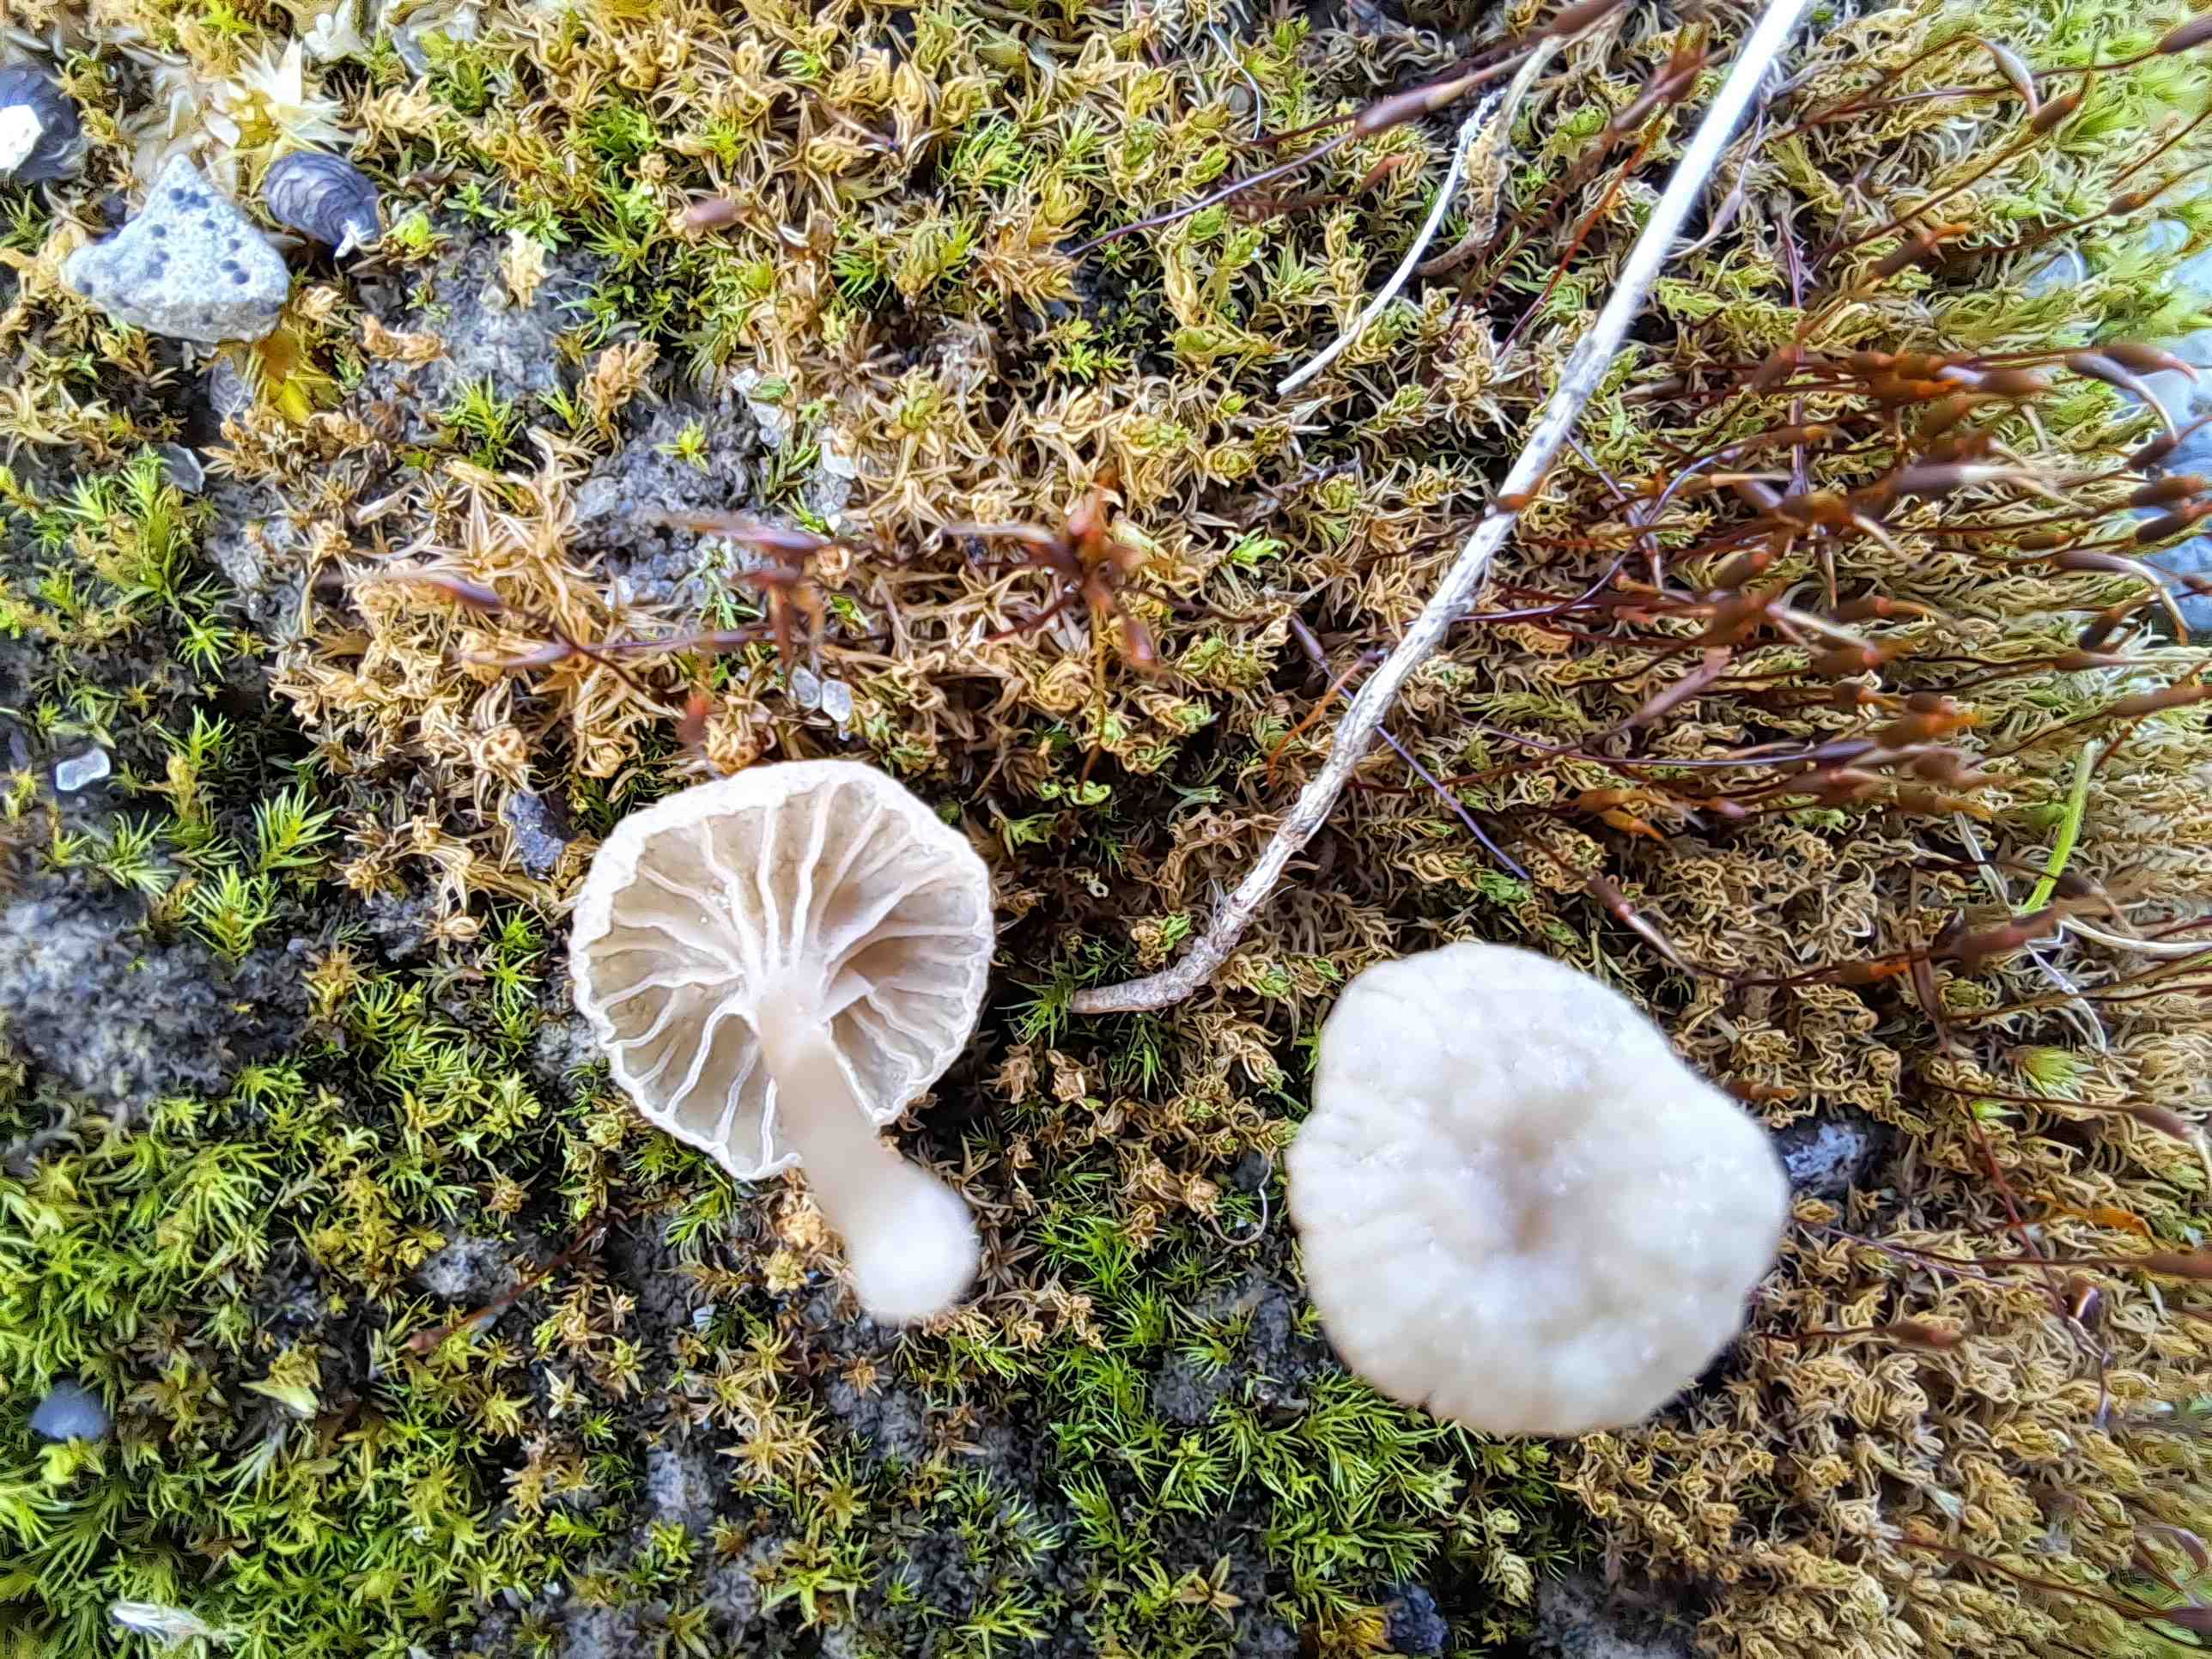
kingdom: Fungi
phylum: Basidiomycota
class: Agaricomycetes
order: Agaricales
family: Hygrophoraceae
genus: Arrhenia
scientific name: Arrhenia elegans
